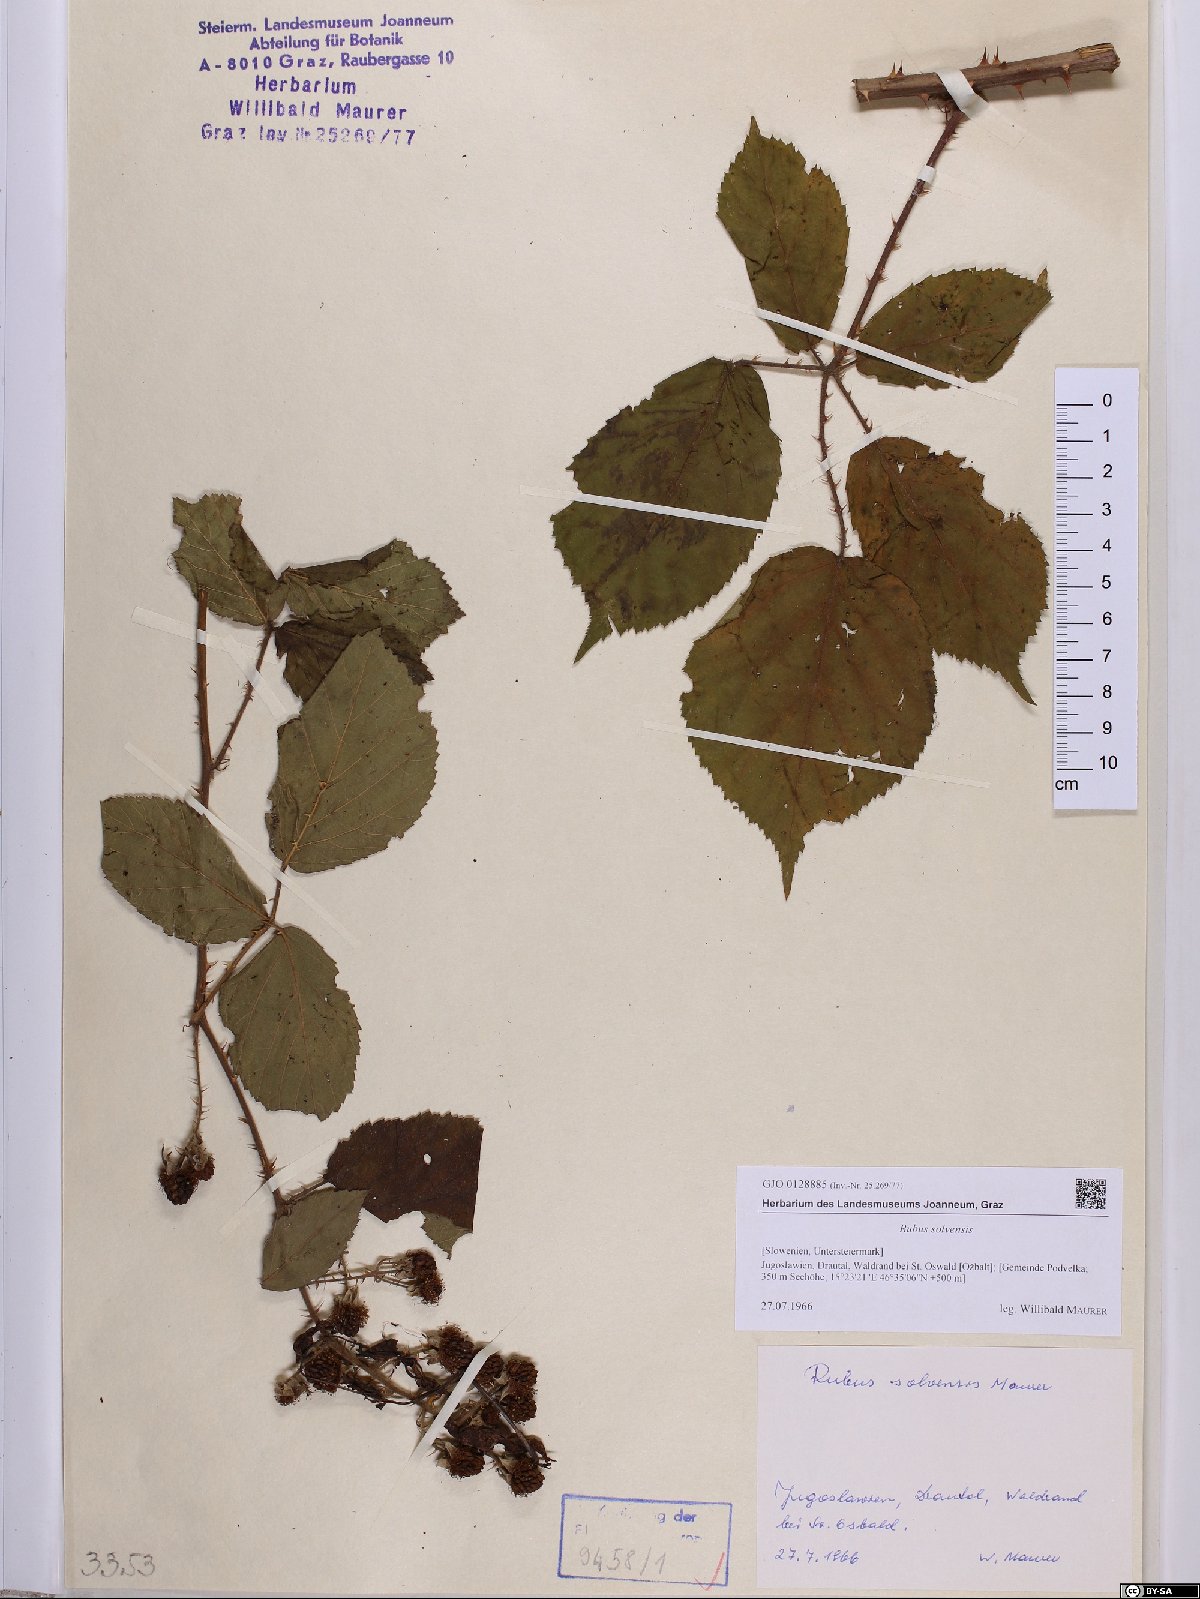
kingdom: Plantae
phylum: Tracheophyta
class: Magnoliopsida
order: Rosales
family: Rosaceae
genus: Rubus
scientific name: Rubus solvensis
